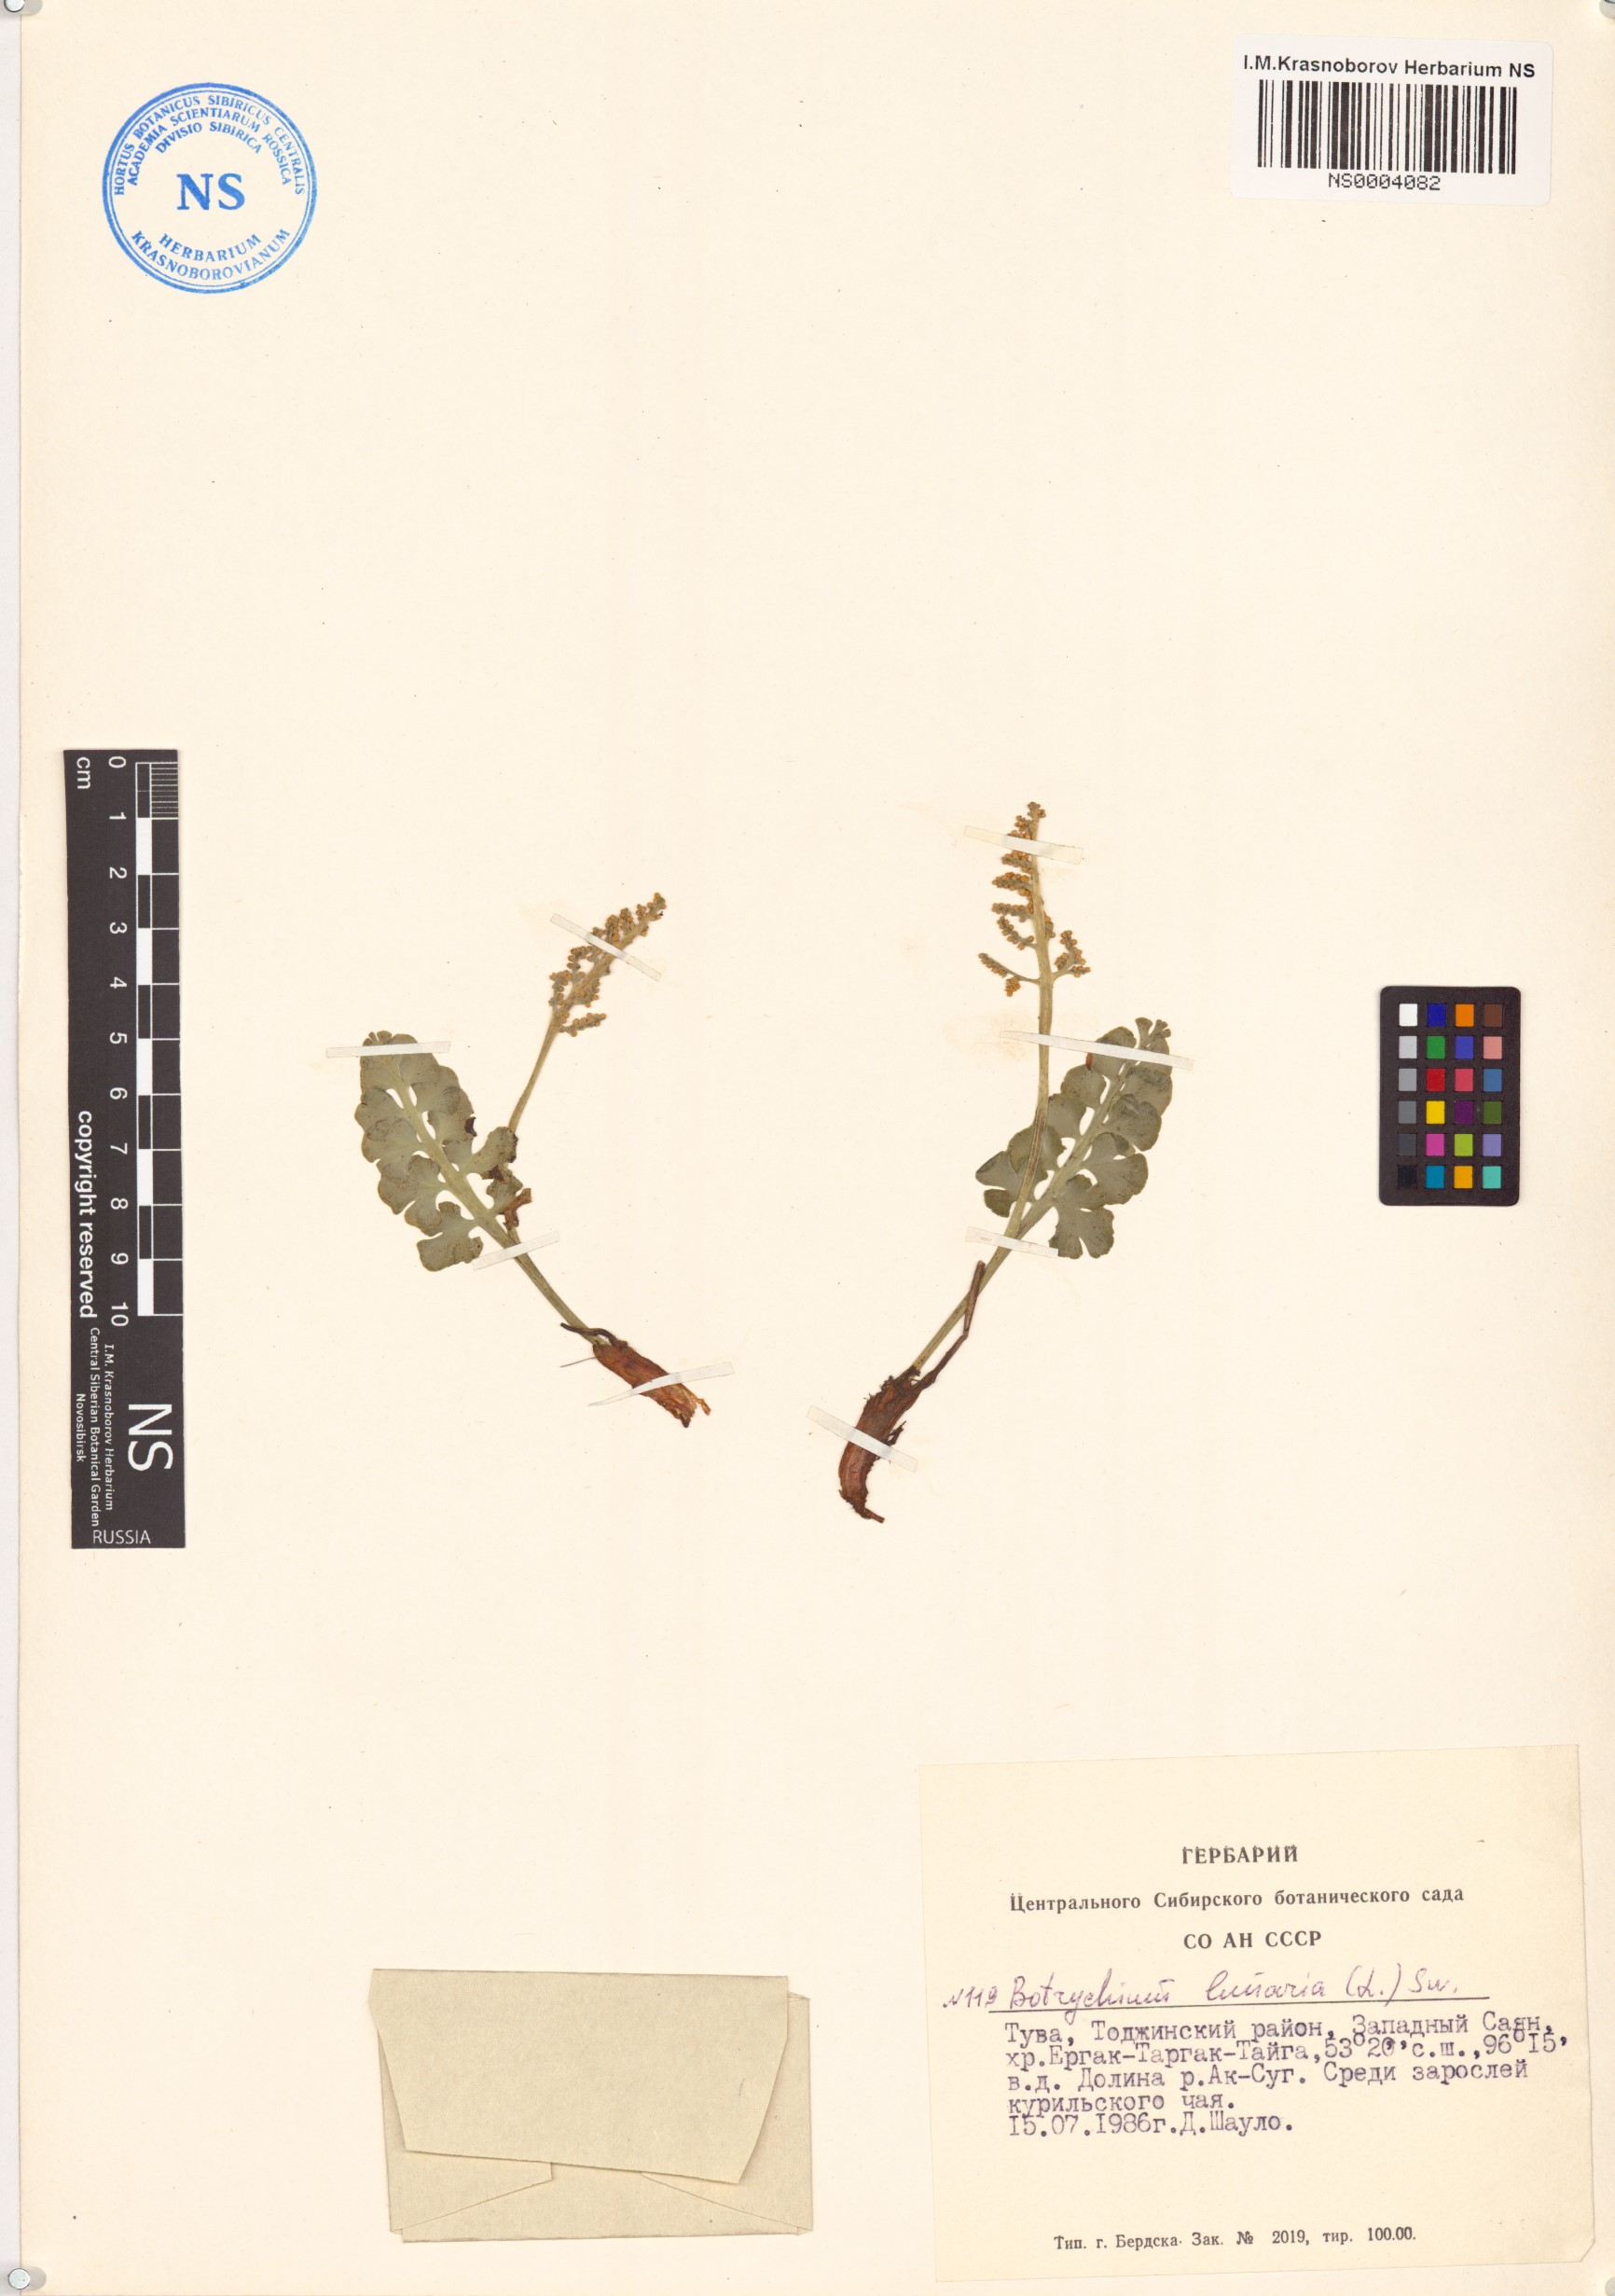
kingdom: Plantae
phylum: Tracheophyta
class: Polypodiopsida
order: Ophioglossales
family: Ophioglossaceae
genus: Botrychium
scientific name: Botrychium lunaria
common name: Moonwort
